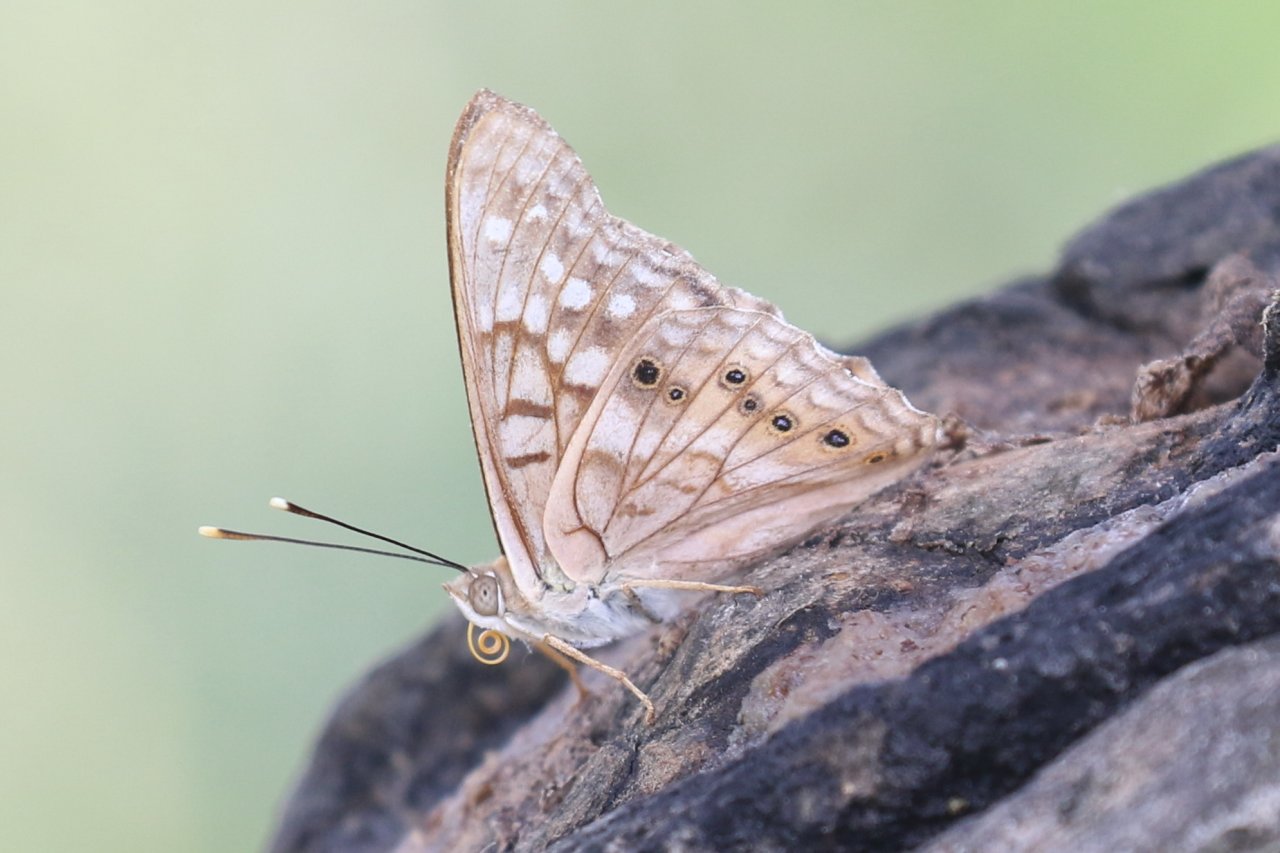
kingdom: Animalia
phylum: Arthropoda
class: Insecta
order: Lepidoptera
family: Nymphalidae
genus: Asterocampa
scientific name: Asterocampa clyton
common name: Tawny Emperor
